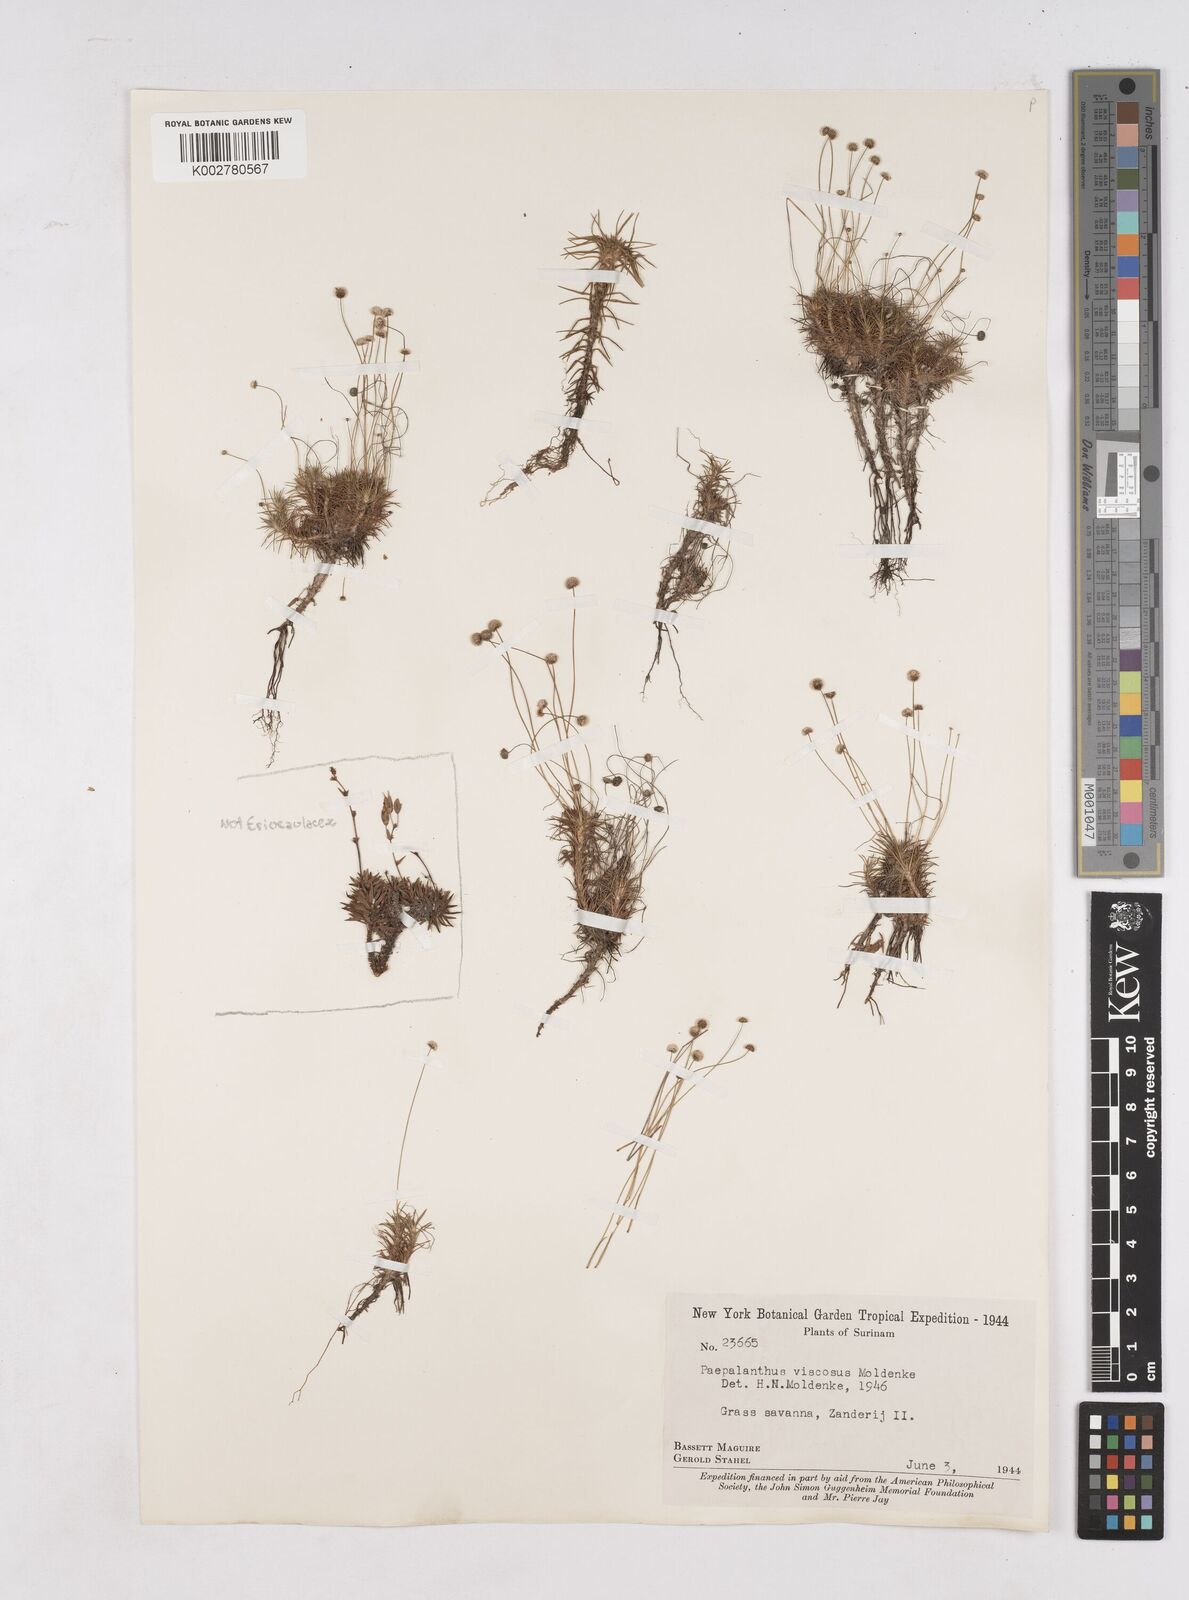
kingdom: Plantae
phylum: Tracheophyta
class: Liliopsida
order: Poales
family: Eriocaulaceae
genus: Paepalanthus
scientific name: Paepalanthus polytrichoides
